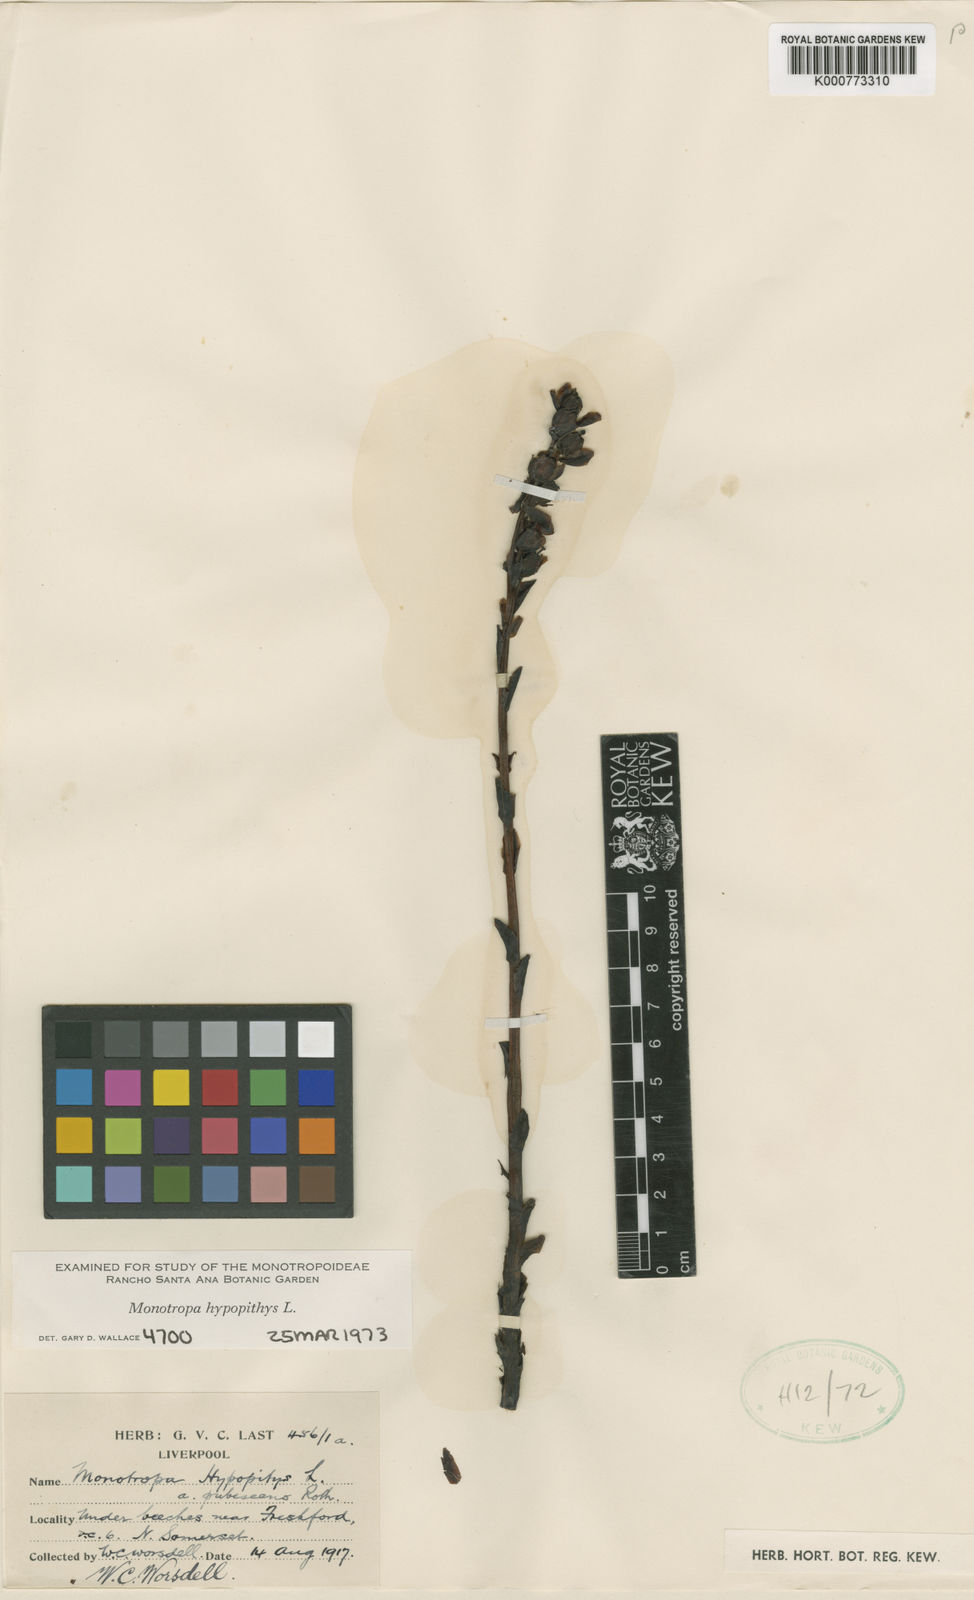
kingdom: Plantae
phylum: Tracheophyta
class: Magnoliopsida
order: Ericales
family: Ericaceae
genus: Monotropa
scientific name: Monotropa
